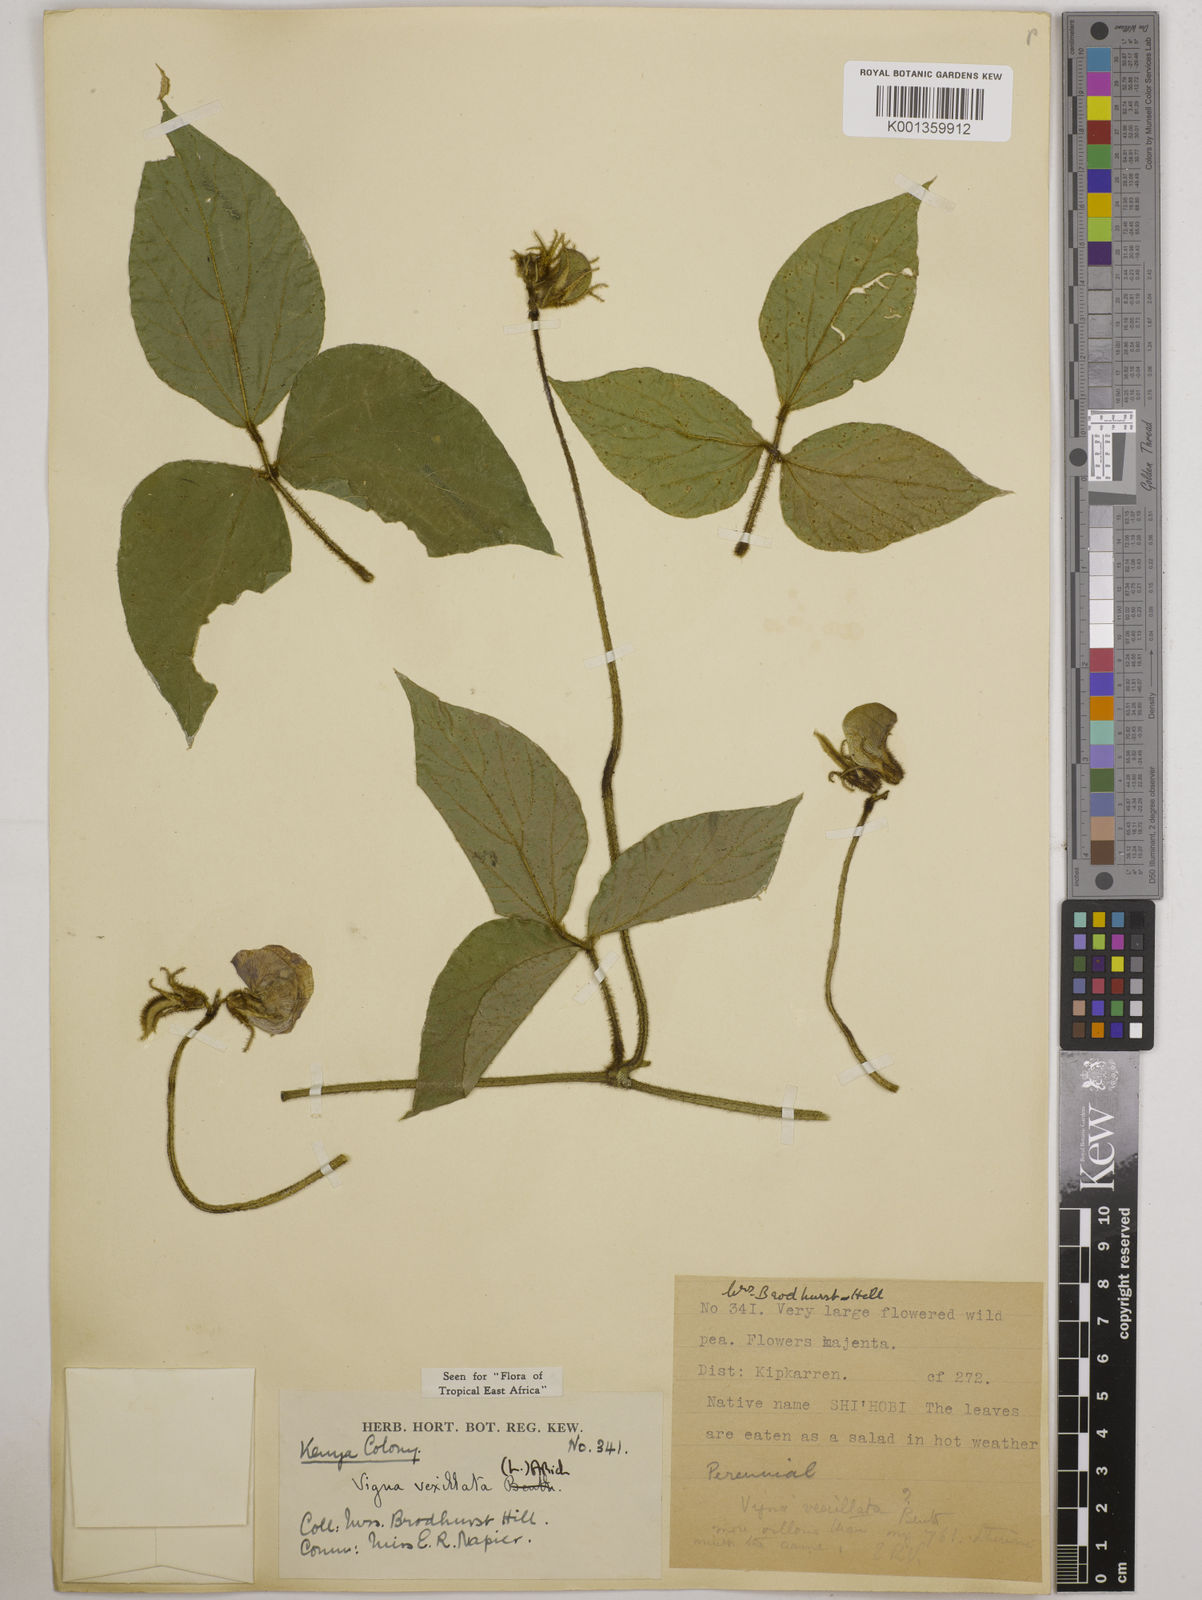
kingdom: Plantae
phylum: Tracheophyta
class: Magnoliopsida
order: Fabales
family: Fabaceae
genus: Vigna
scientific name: Vigna vexillata
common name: Zombi pea
